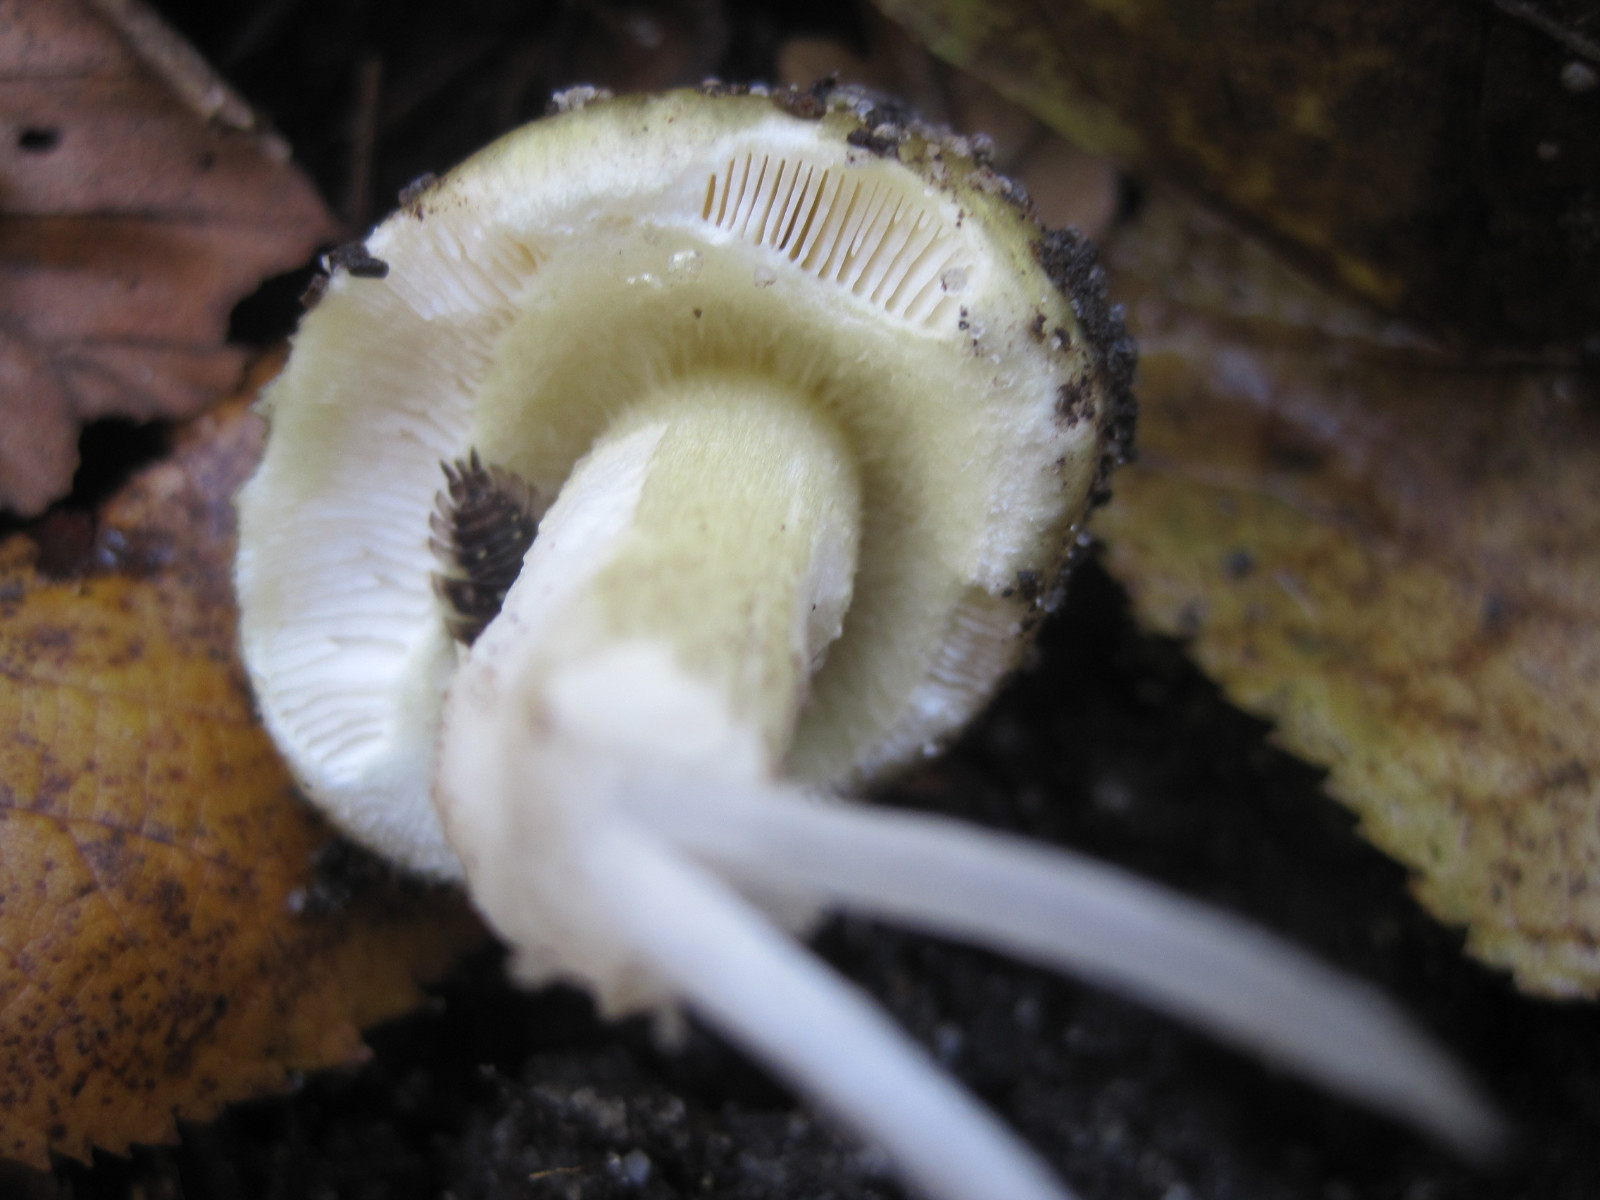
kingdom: Fungi
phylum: Basidiomycota
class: Agaricomycetes
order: Agaricales
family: Amanitaceae
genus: Amanita
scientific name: Amanita phalloides
